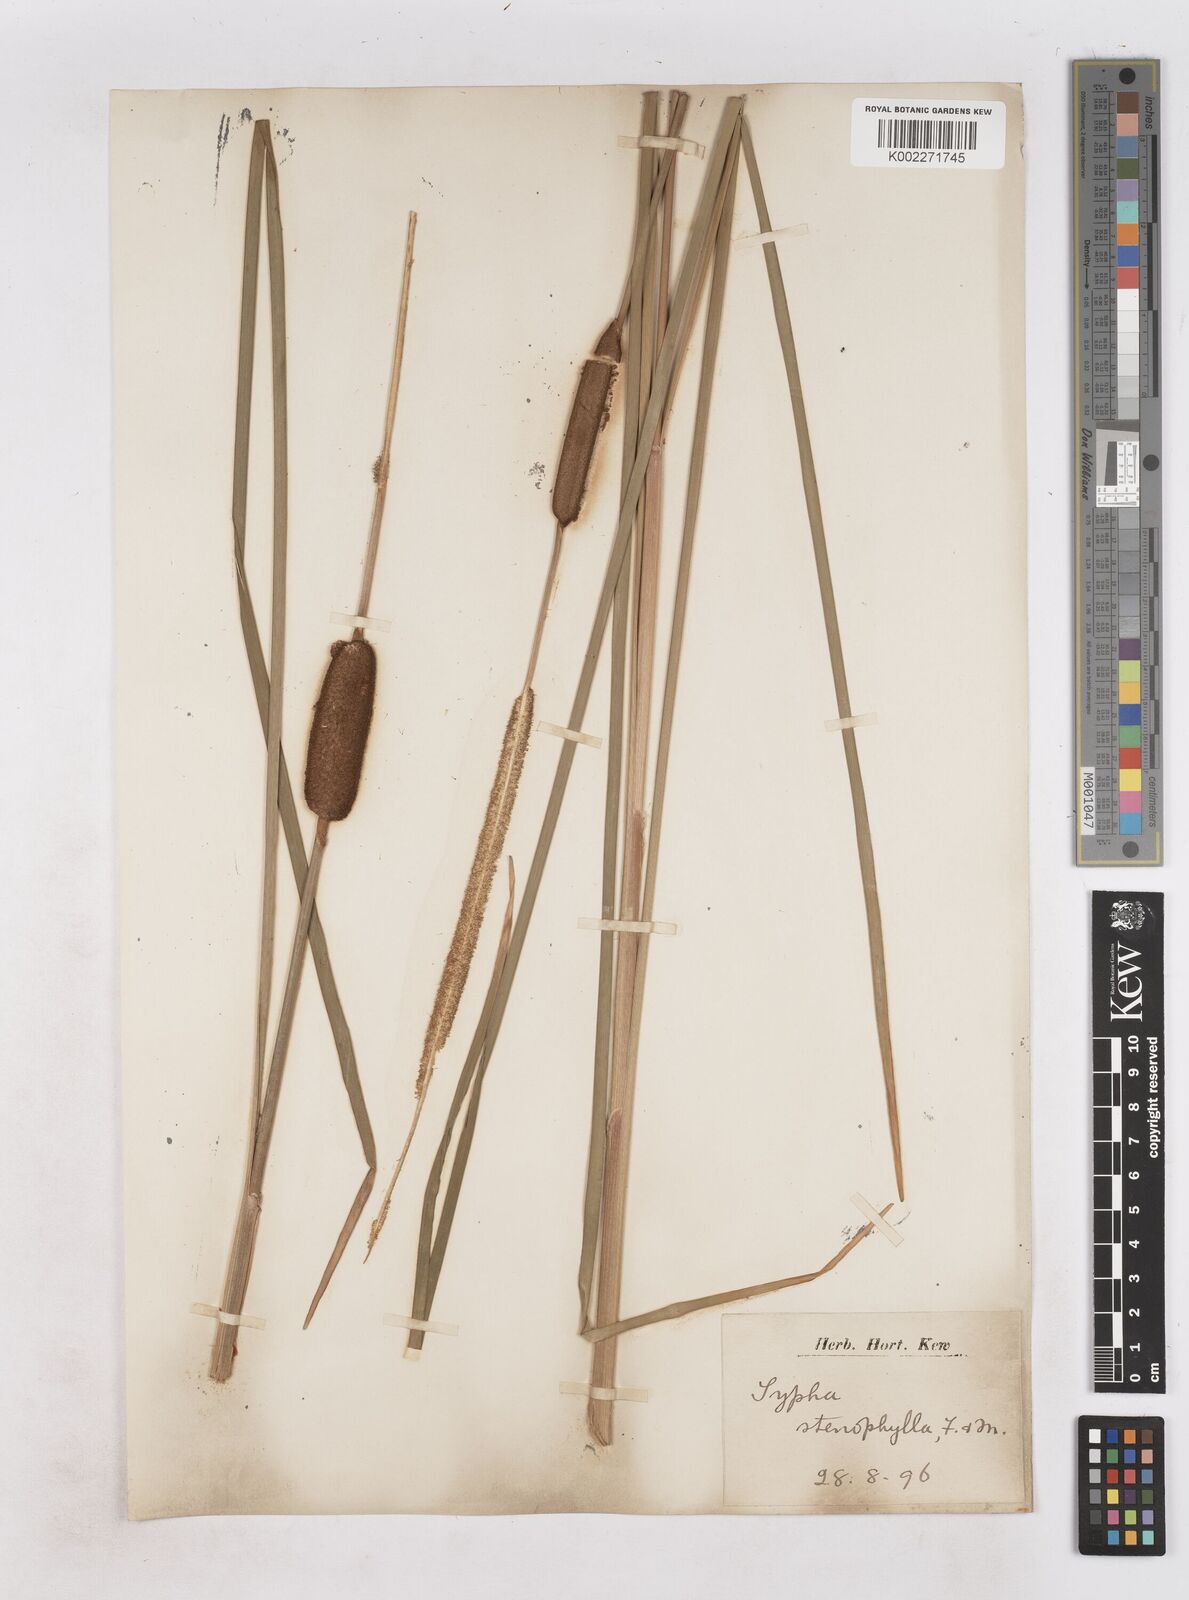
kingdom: Plantae
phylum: Tracheophyta
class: Liliopsida
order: Poales
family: Typhaceae
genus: Typha
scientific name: Typha lugdunensis
